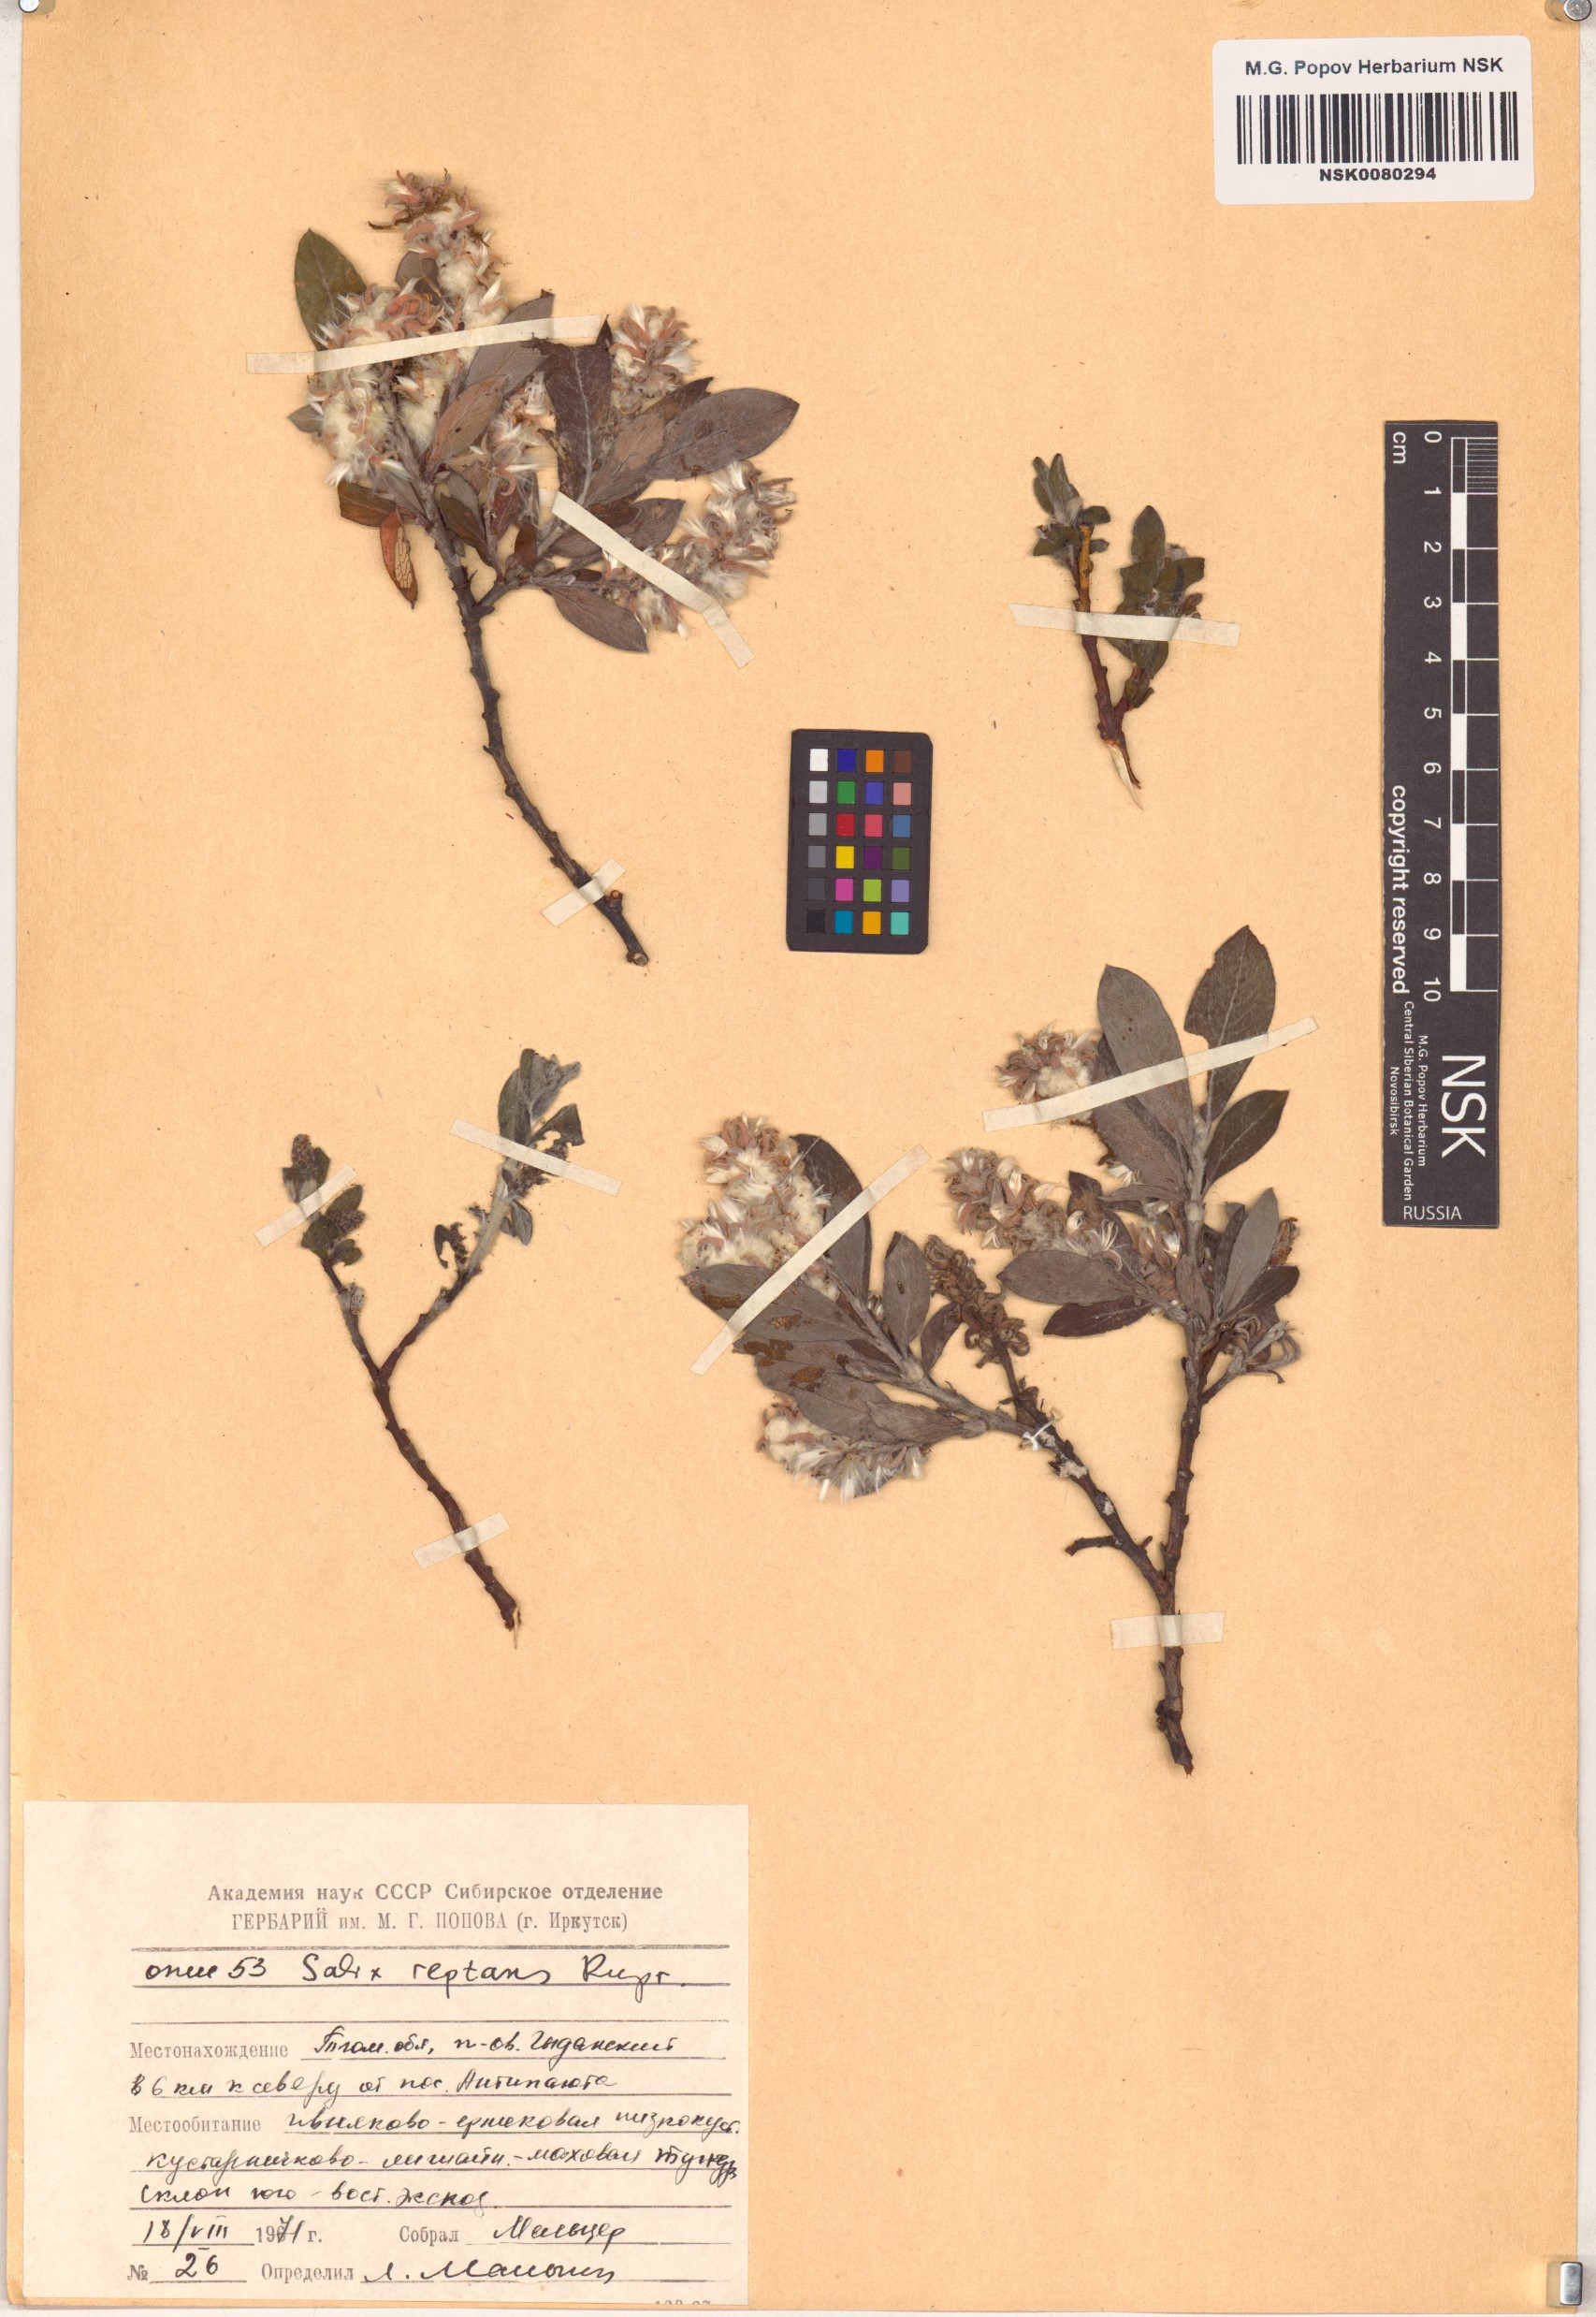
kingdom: Plantae
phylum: Tracheophyta
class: Magnoliopsida
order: Malpighiales
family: Salicaceae
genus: Salix
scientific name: Salix reptans
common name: Arctic creeping willow
